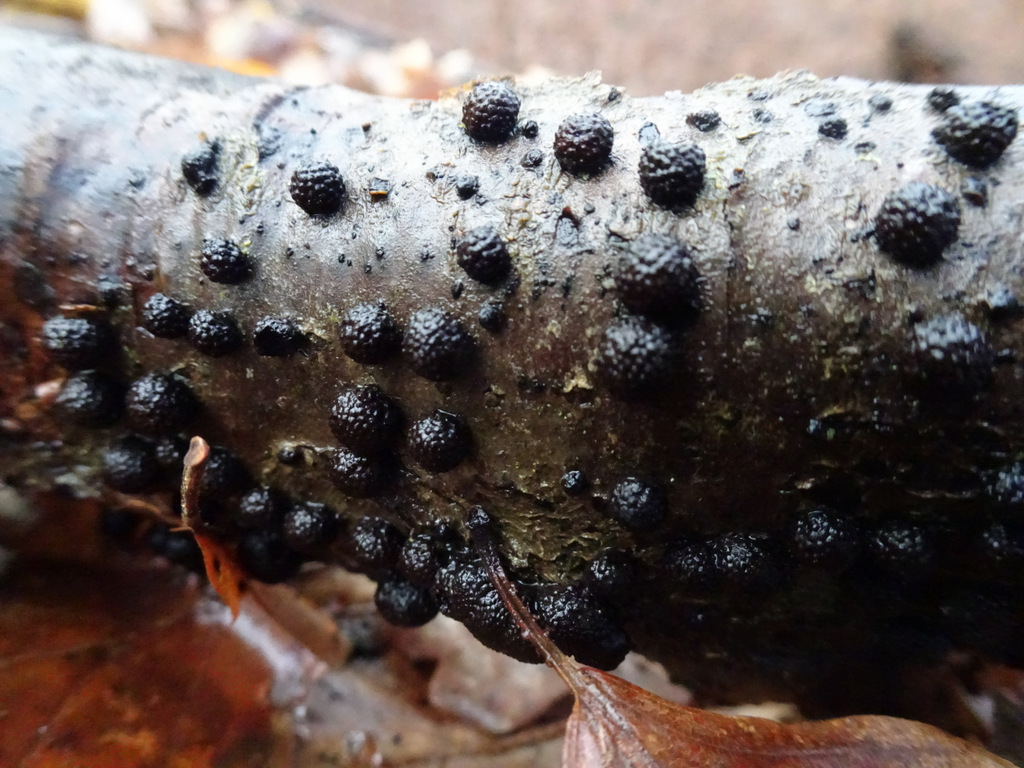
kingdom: Fungi
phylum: Ascomycota
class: Sordariomycetes
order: Xylariales
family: Hypoxylaceae
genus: Jackrogersella
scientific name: Jackrogersella minutella
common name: ege-kulbær
